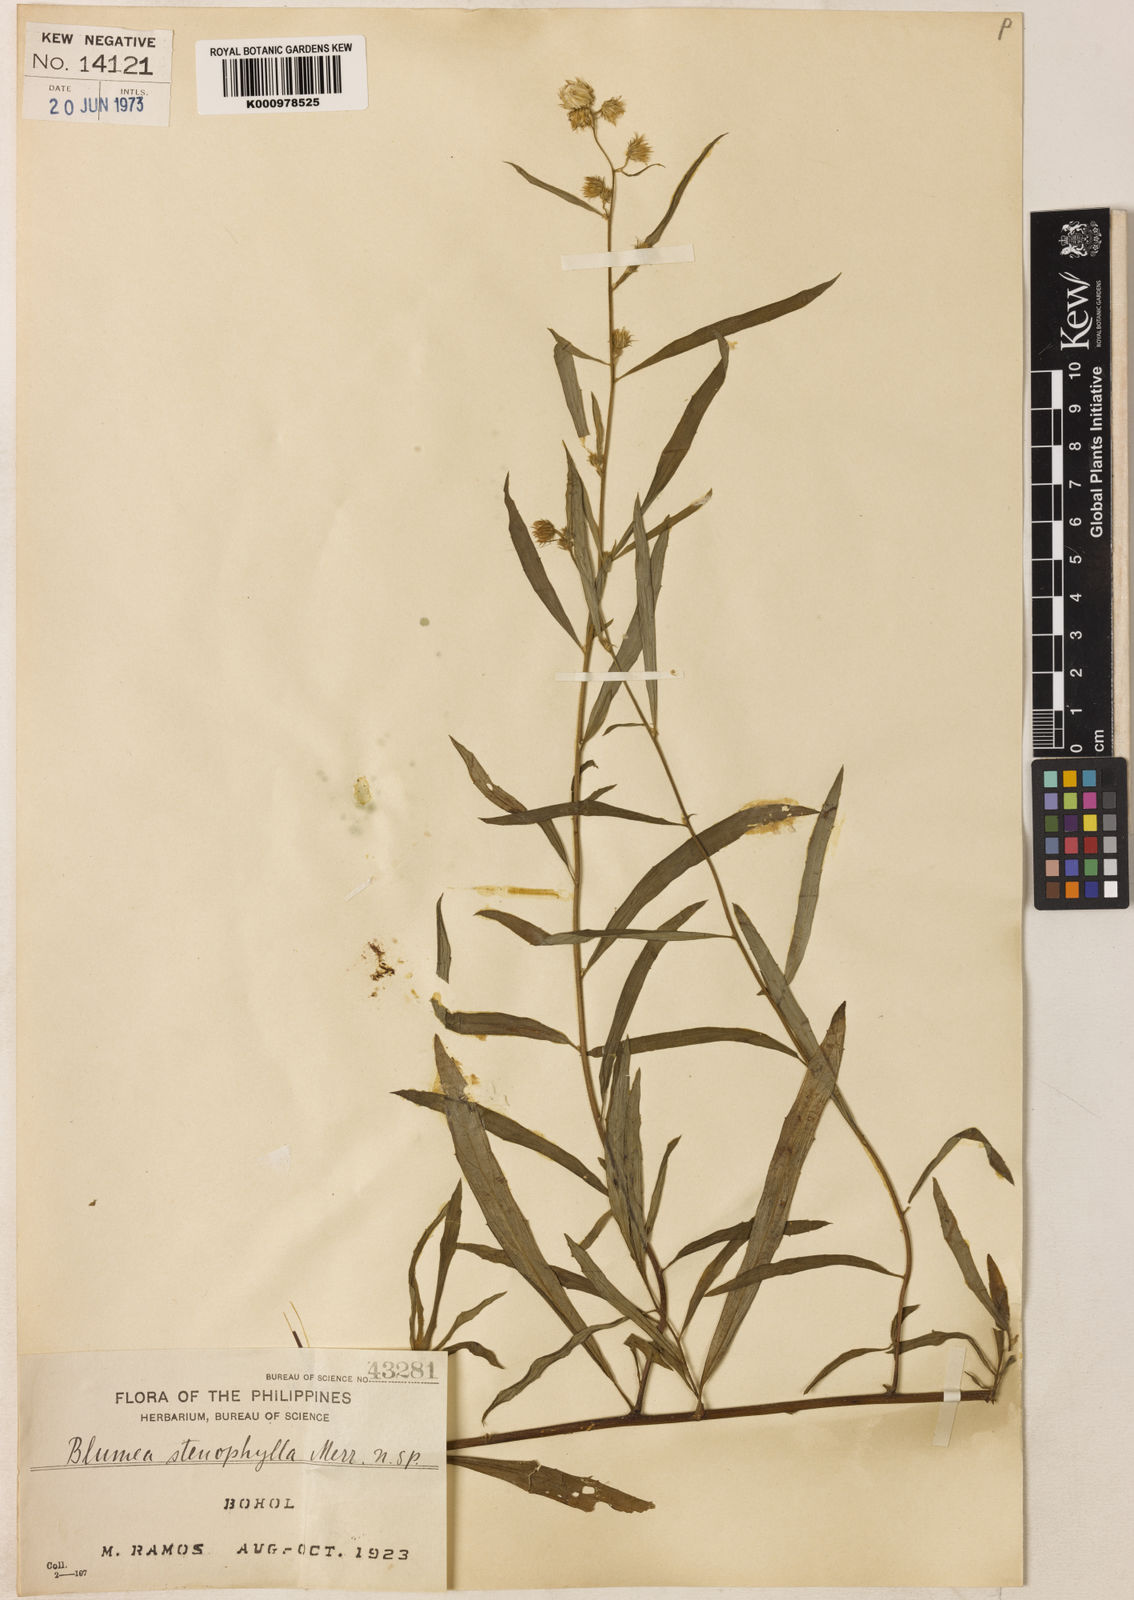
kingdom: Plantae
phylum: Tracheophyta
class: Magnoliopsida
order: Asterales
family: Asteraceae
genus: Blumea
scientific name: Blumea stenophylla
